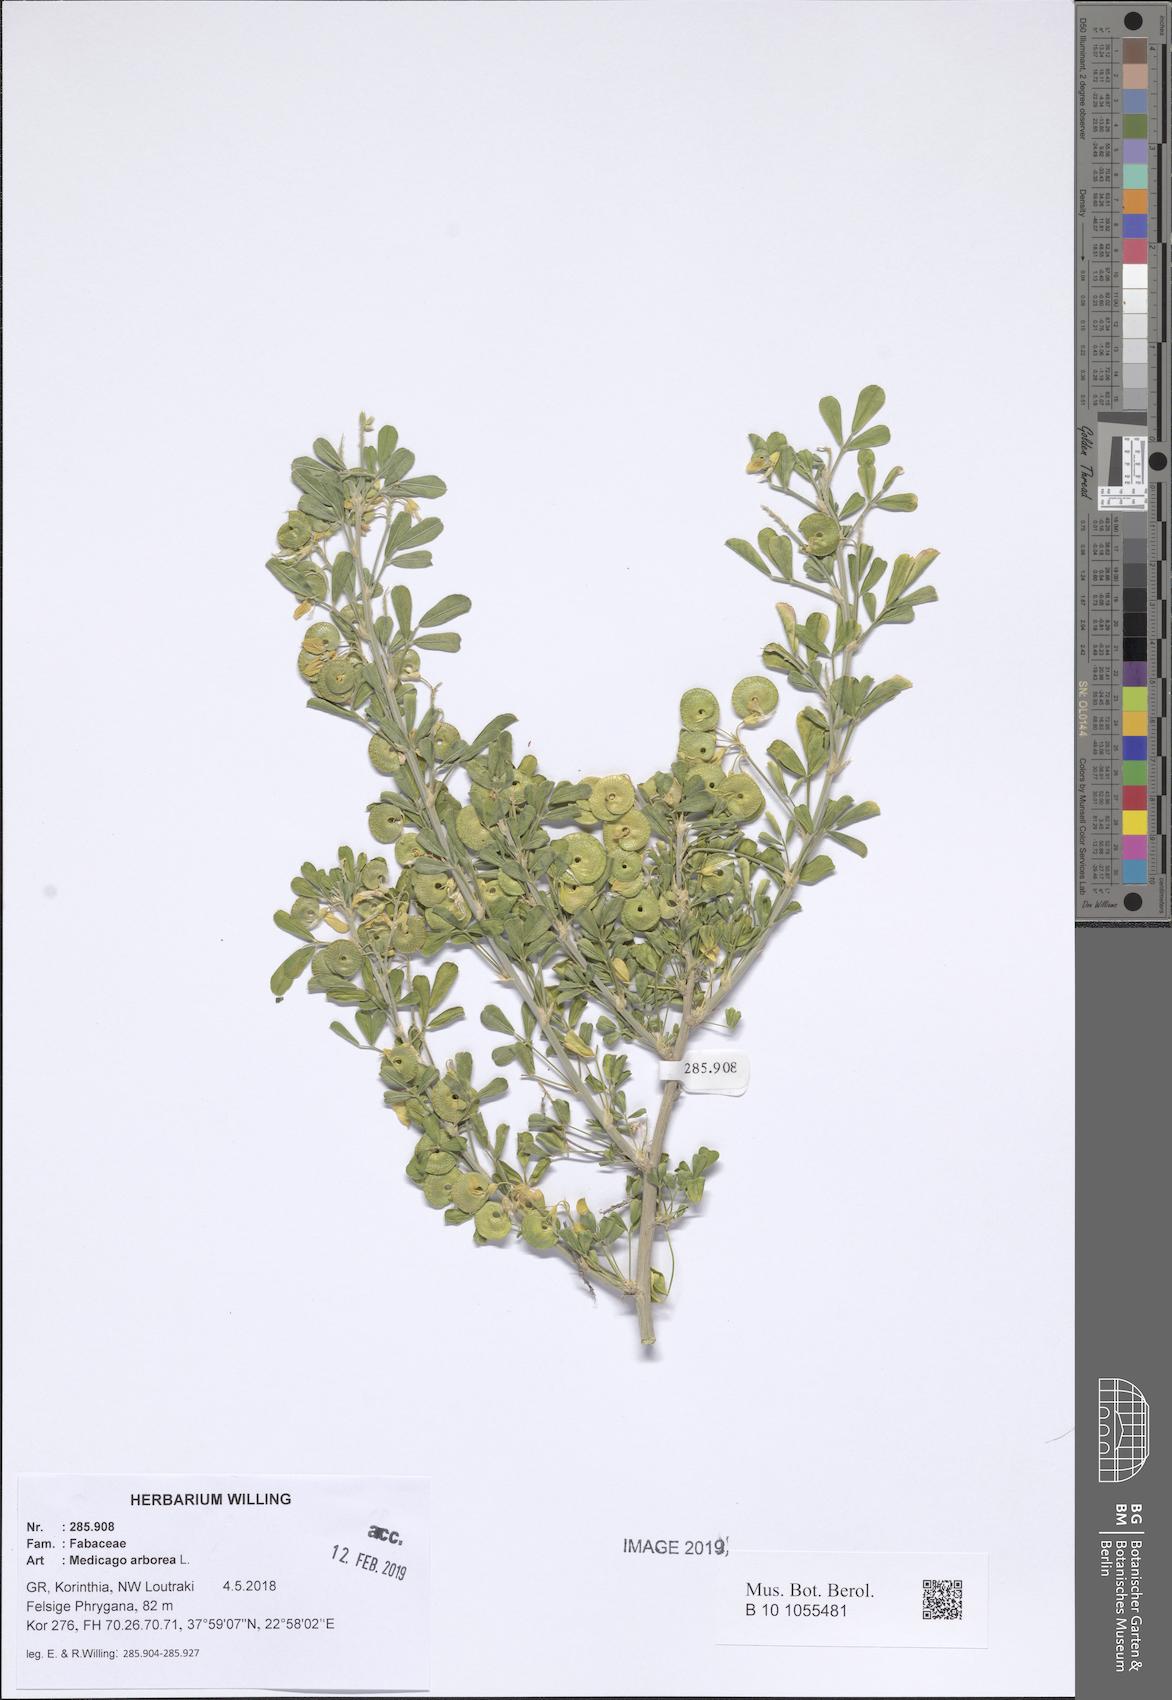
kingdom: Plantae
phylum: Tracheophyta
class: Magnoliopsida
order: Fabales
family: Fabaceae
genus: Medicago
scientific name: Medicago arborea
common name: Moon trefoil
